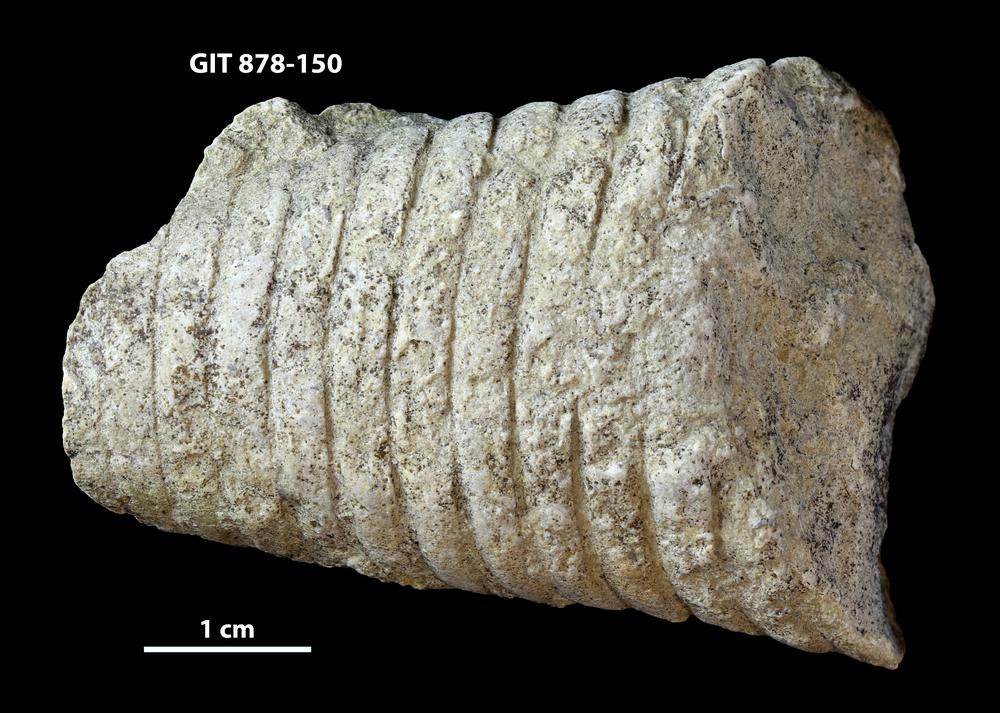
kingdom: Animalia
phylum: Mollusca
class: Cephalopoda
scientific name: Cephalopoda
